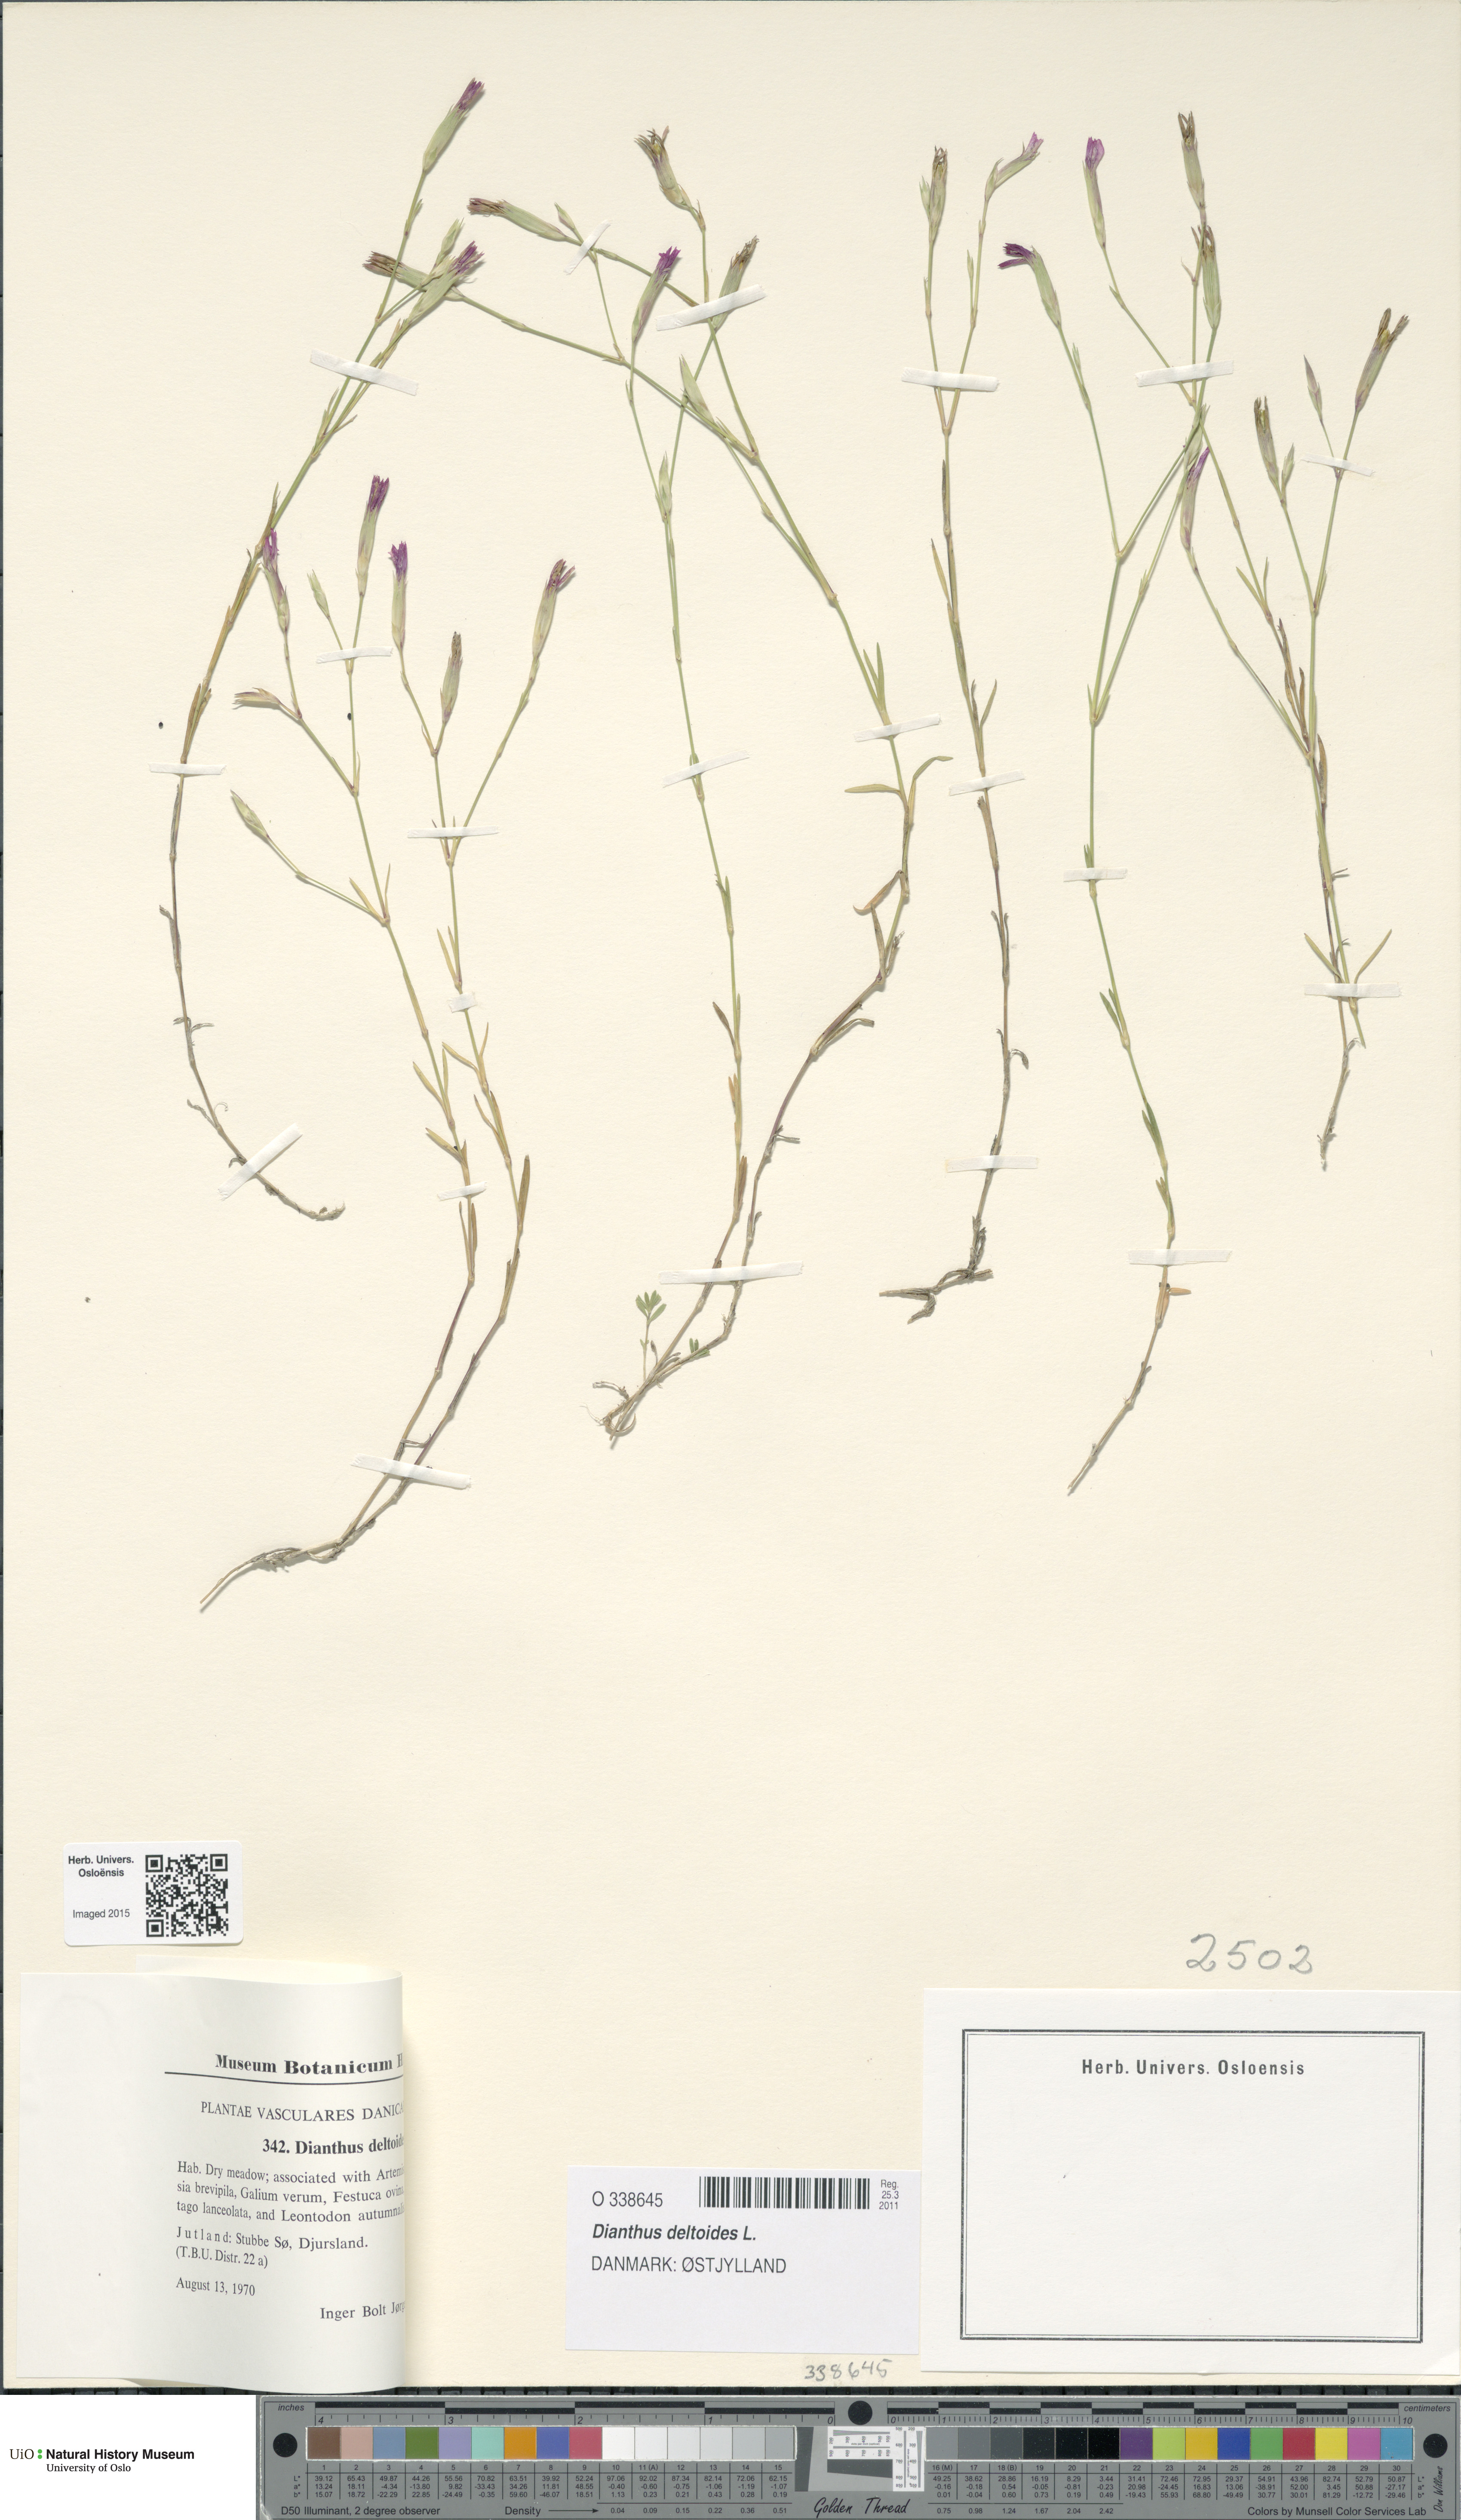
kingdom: Plantae
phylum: Tracheophyta
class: Magnoliopsida
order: Caryophyllales
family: Caryophyllaceae
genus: Dianthus
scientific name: Dianthus deltoides
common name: Maiden pink
